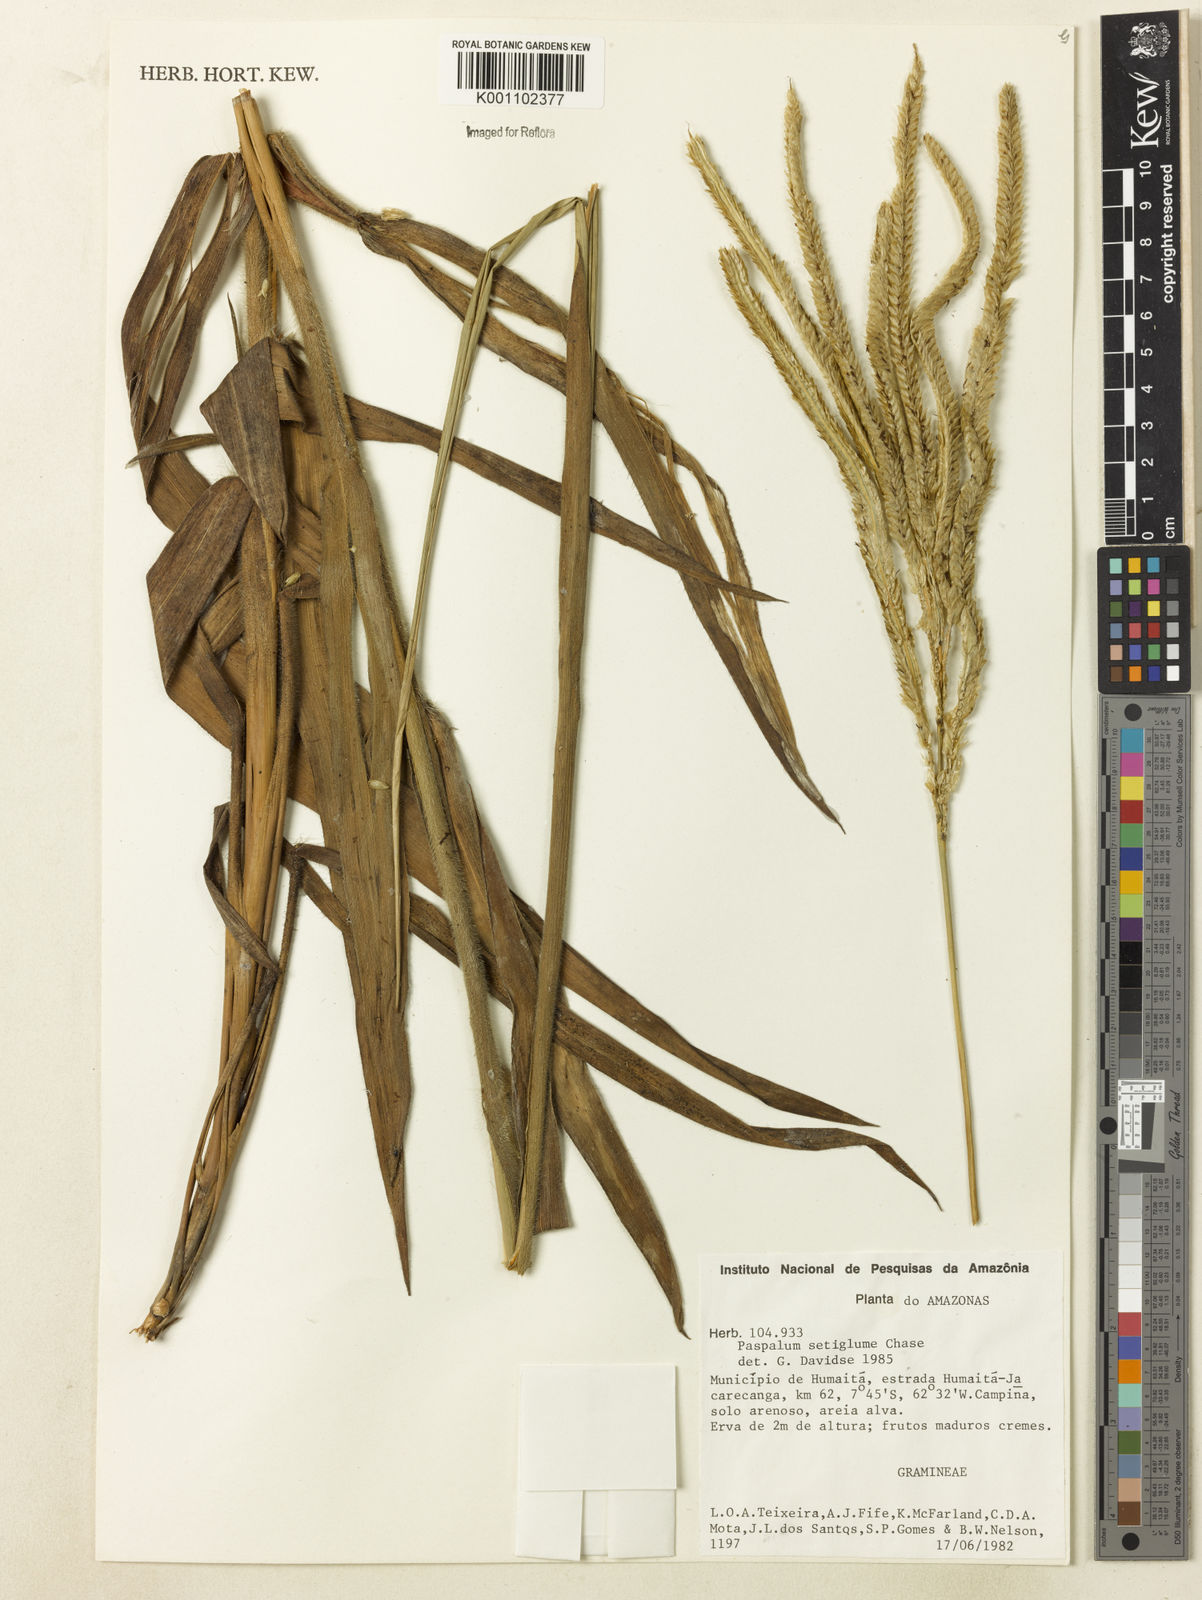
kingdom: Plantae
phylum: Tracheophyta
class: Liliopsida
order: Poales
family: Poaceae
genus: Paspalum
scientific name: Paspalum aspidiotes
